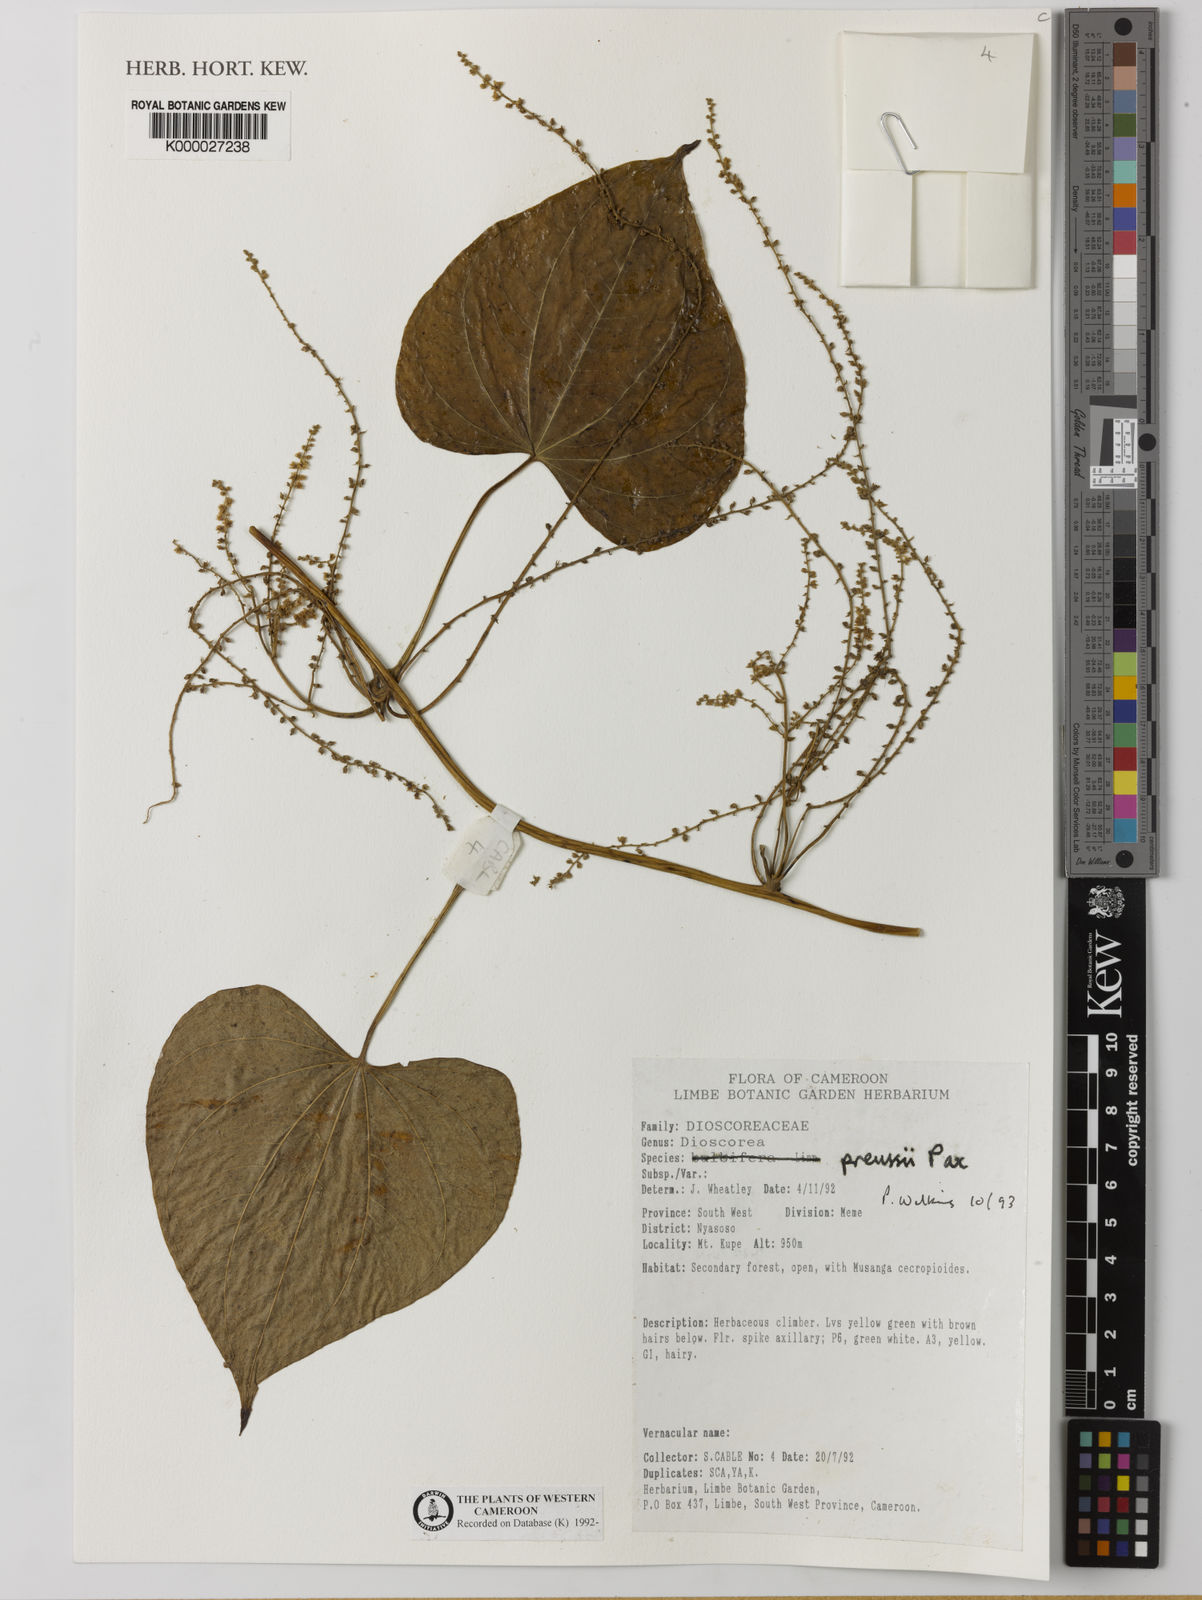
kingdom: Plantae
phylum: Tracheophyta
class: Liliopsida
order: Dioscoreales
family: Dioscoreaceae
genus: Dioscorea
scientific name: Dioscorea preussii
